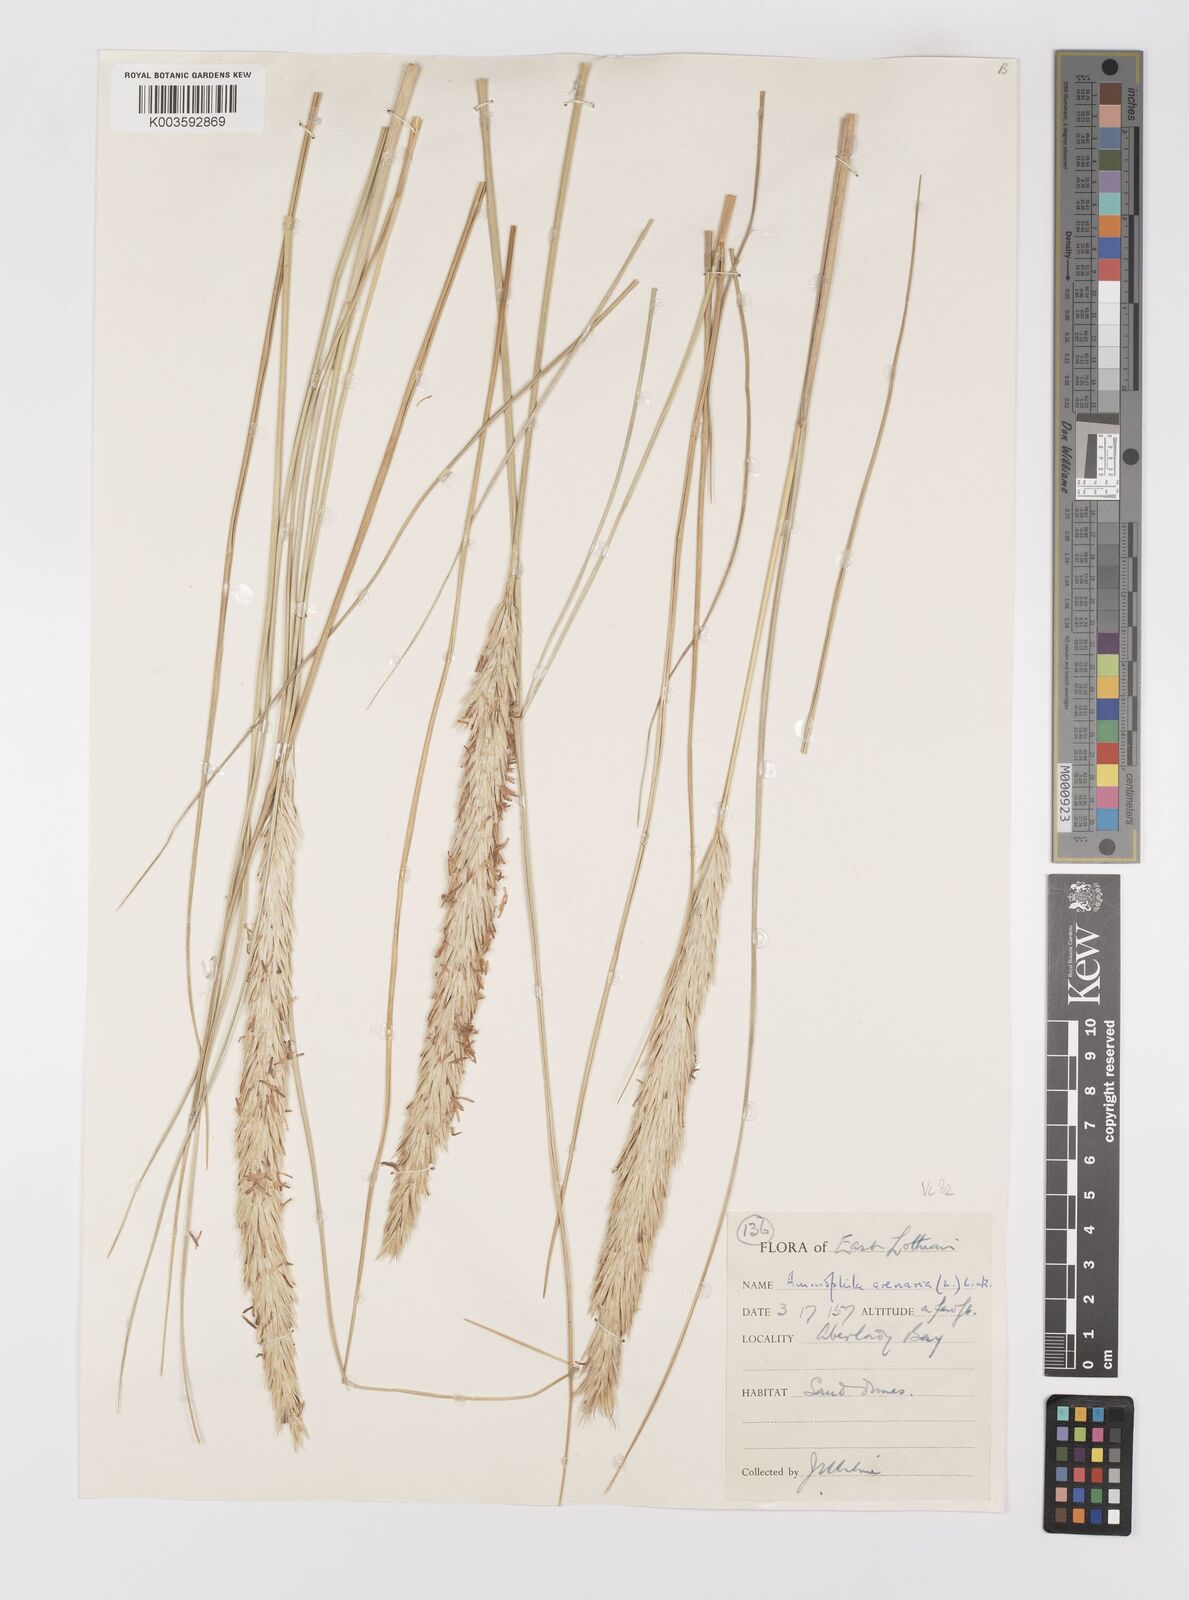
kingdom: Plantae
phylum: Tracheophyta
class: Liliopsida
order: Poales
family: Poaceae
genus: Calamagrostis
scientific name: Calamagrostis arenaria
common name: European beachgrass
